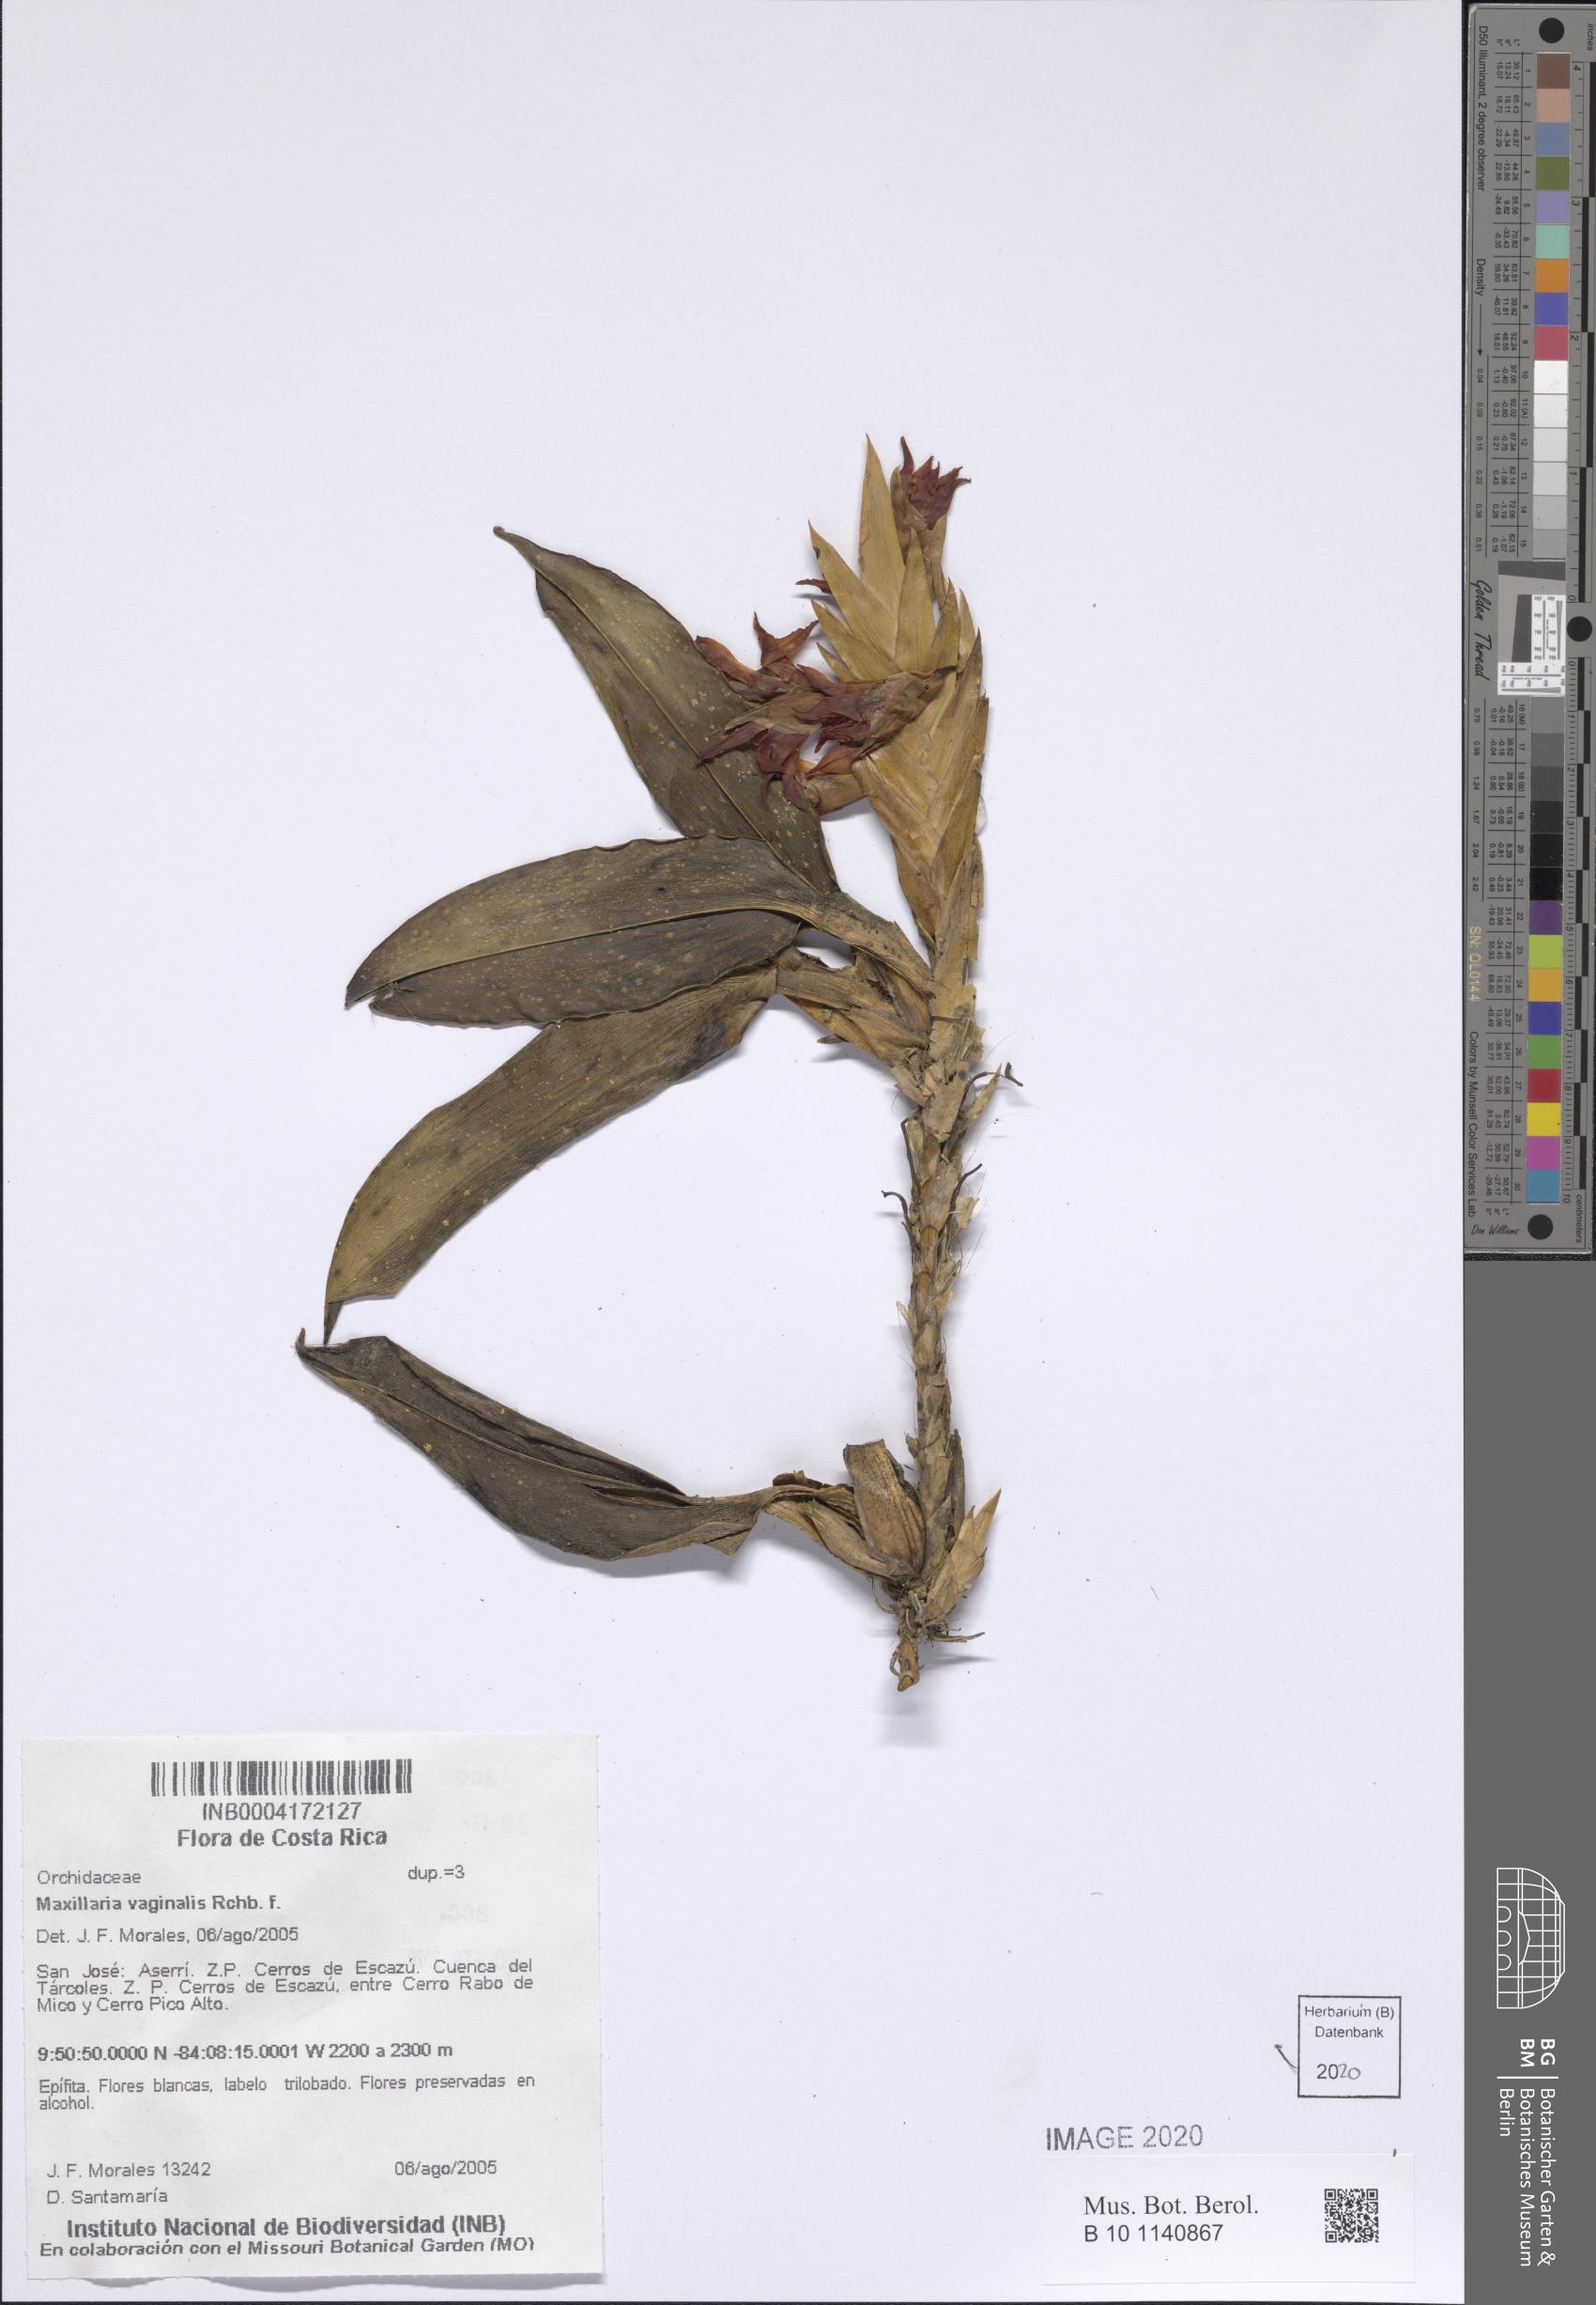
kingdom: Plantae
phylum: Tracheophyta
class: Liliopsida
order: Asparagales
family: Orchidaceae
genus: Maxillaria
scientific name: Maxillaria vaginalis
